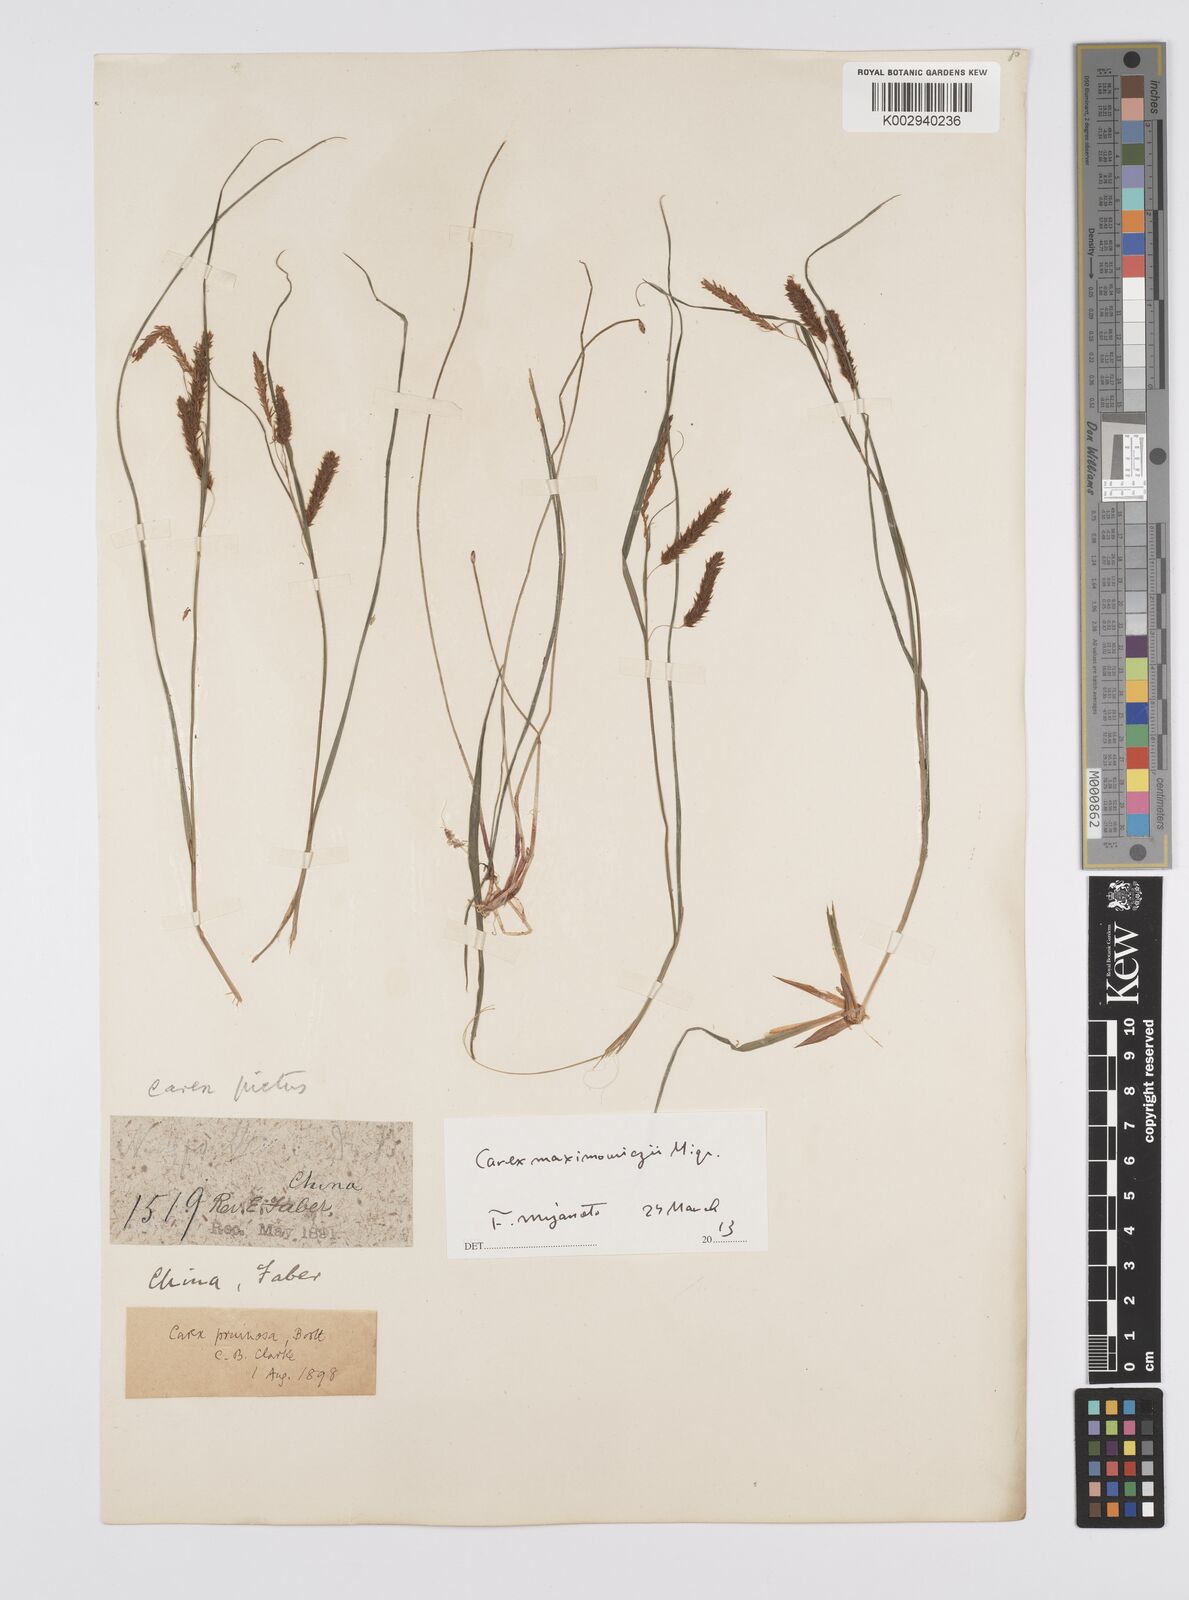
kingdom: Plantae
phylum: Tracheophyta
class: Liliopsida
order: Poales
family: Cyperaceae
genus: Carex
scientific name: Carex pruinosa
